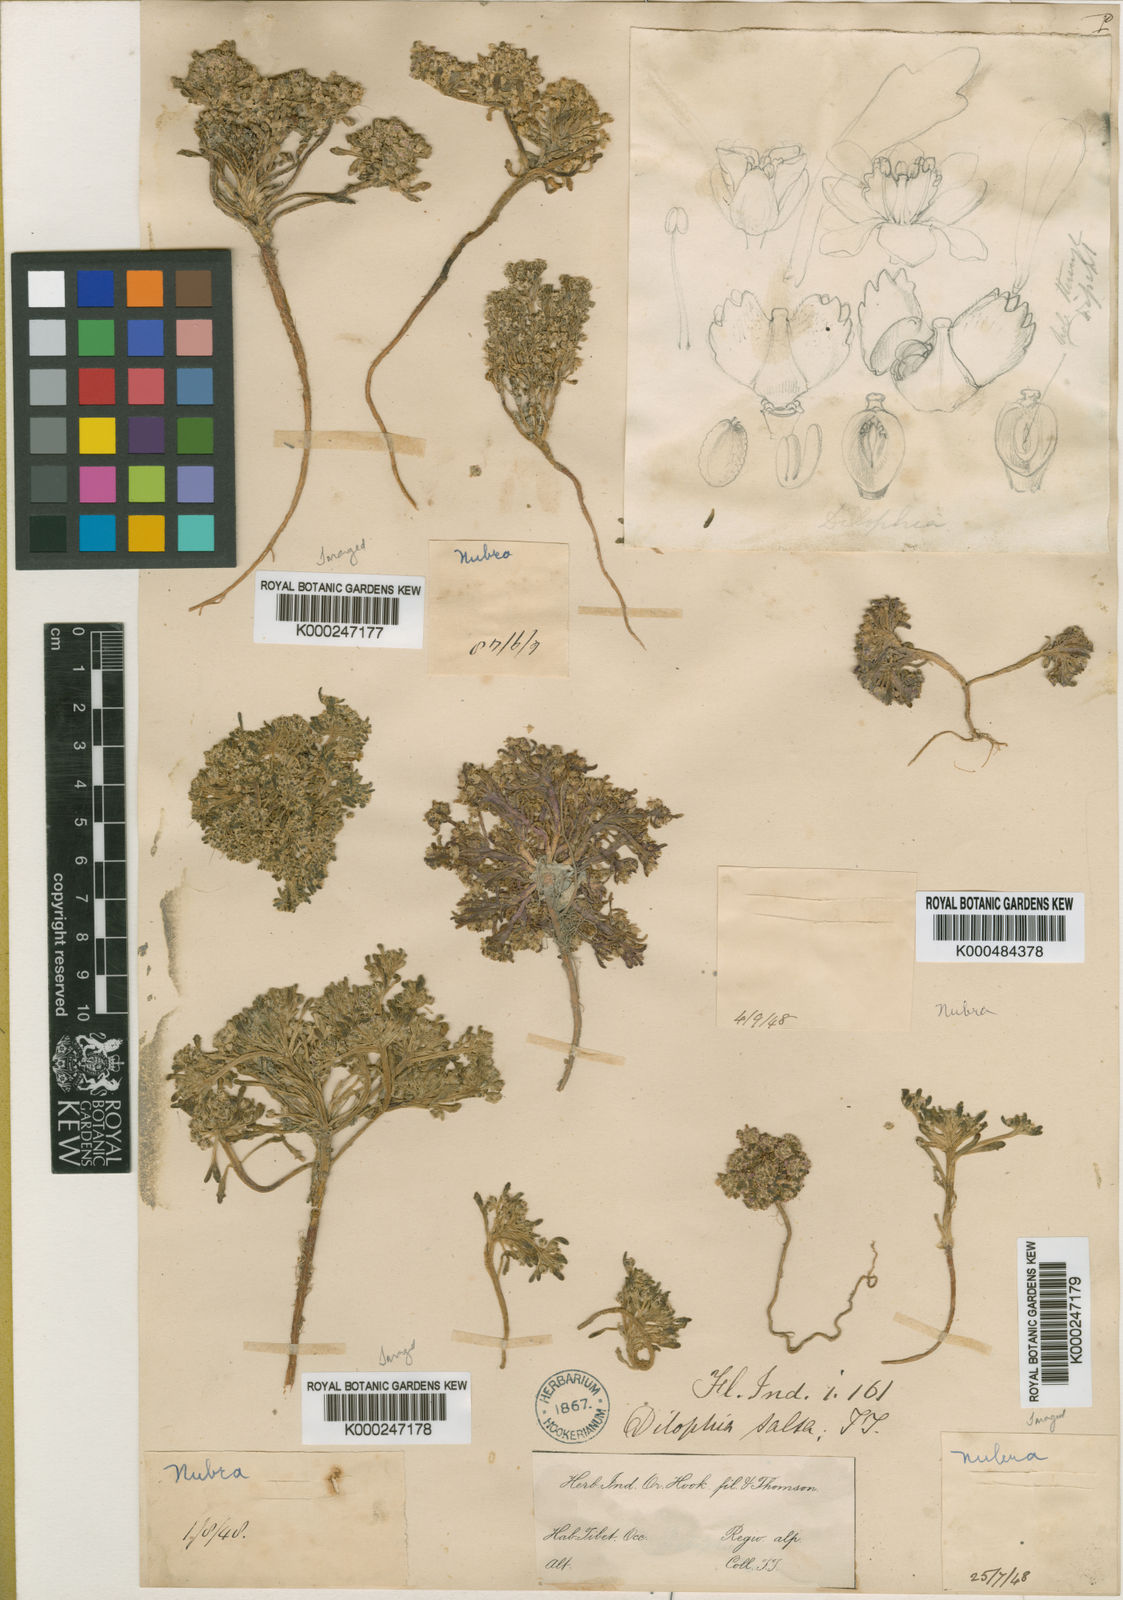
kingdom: Plantae
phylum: Tracheophyta
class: Magnoliopsida
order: Brassicales
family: Brassicaceae
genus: Dilophia
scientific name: Dilophia salsa
